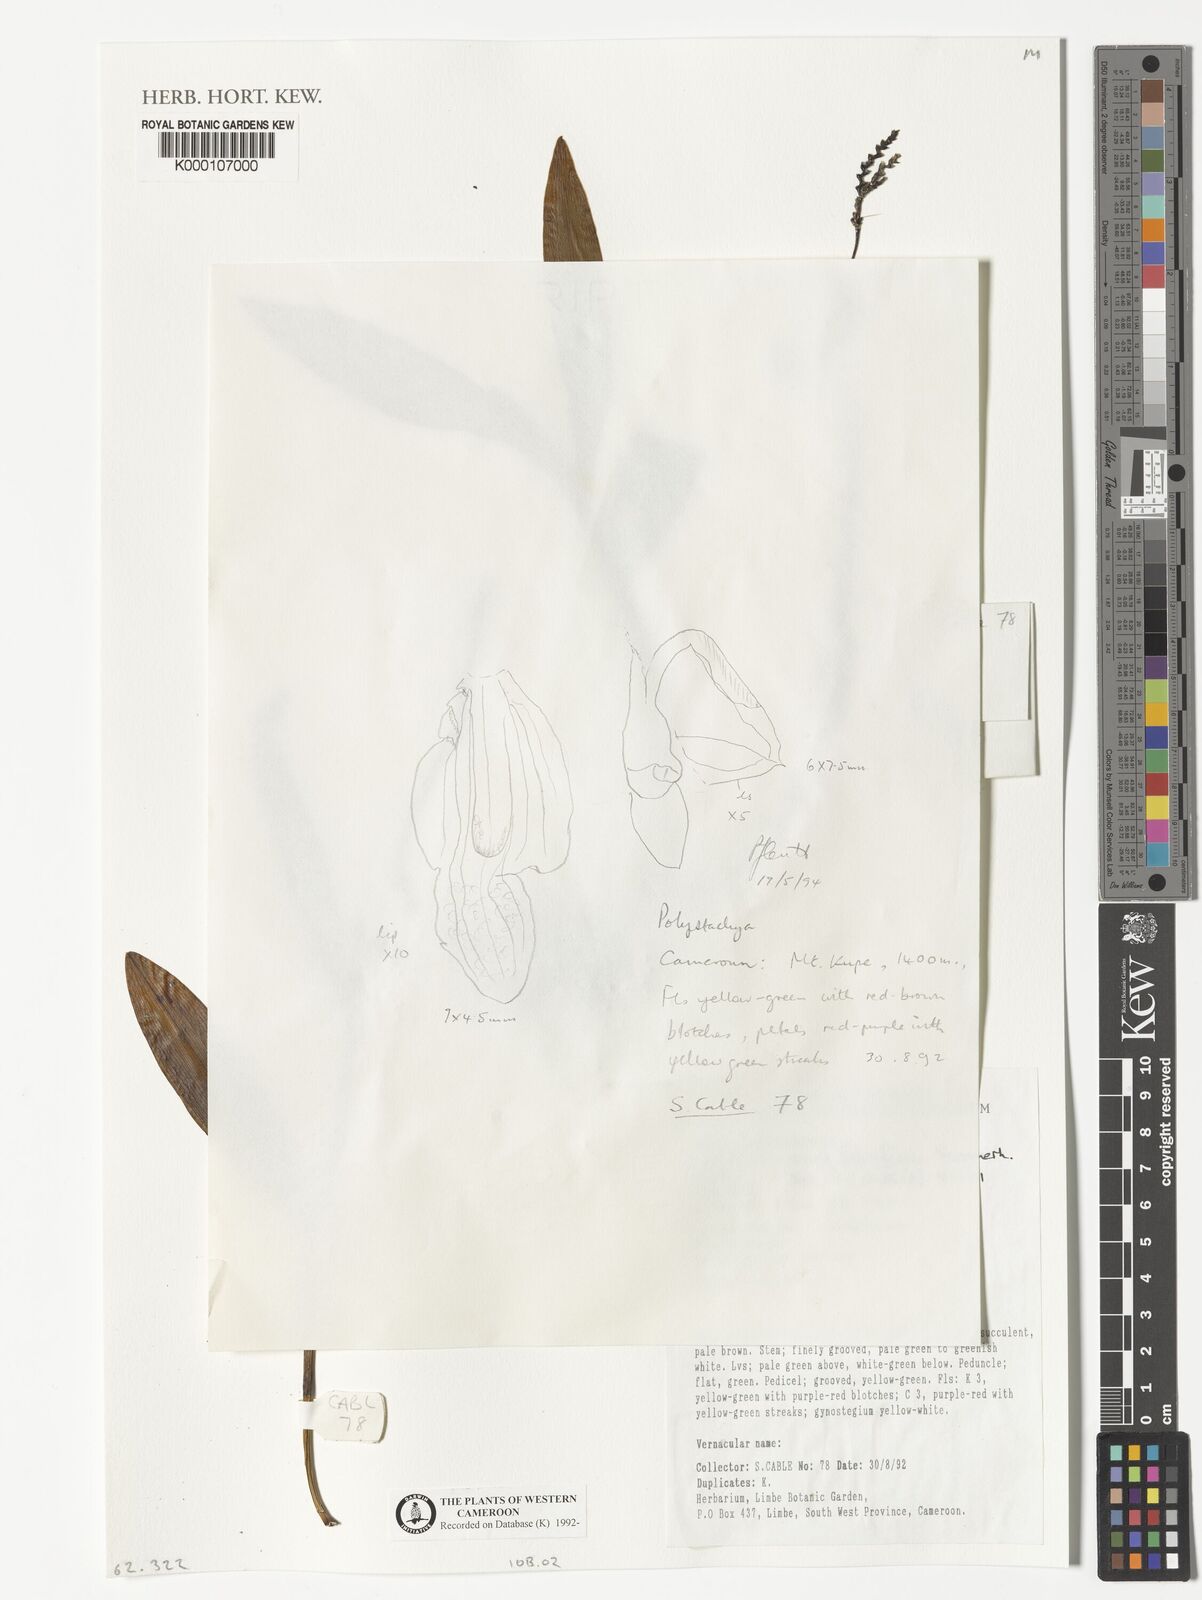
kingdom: Plantae
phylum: Tracheophyta
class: Liliopsida
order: Asparagales
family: Orchidaceae
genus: Polystachya
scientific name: Polystachya
